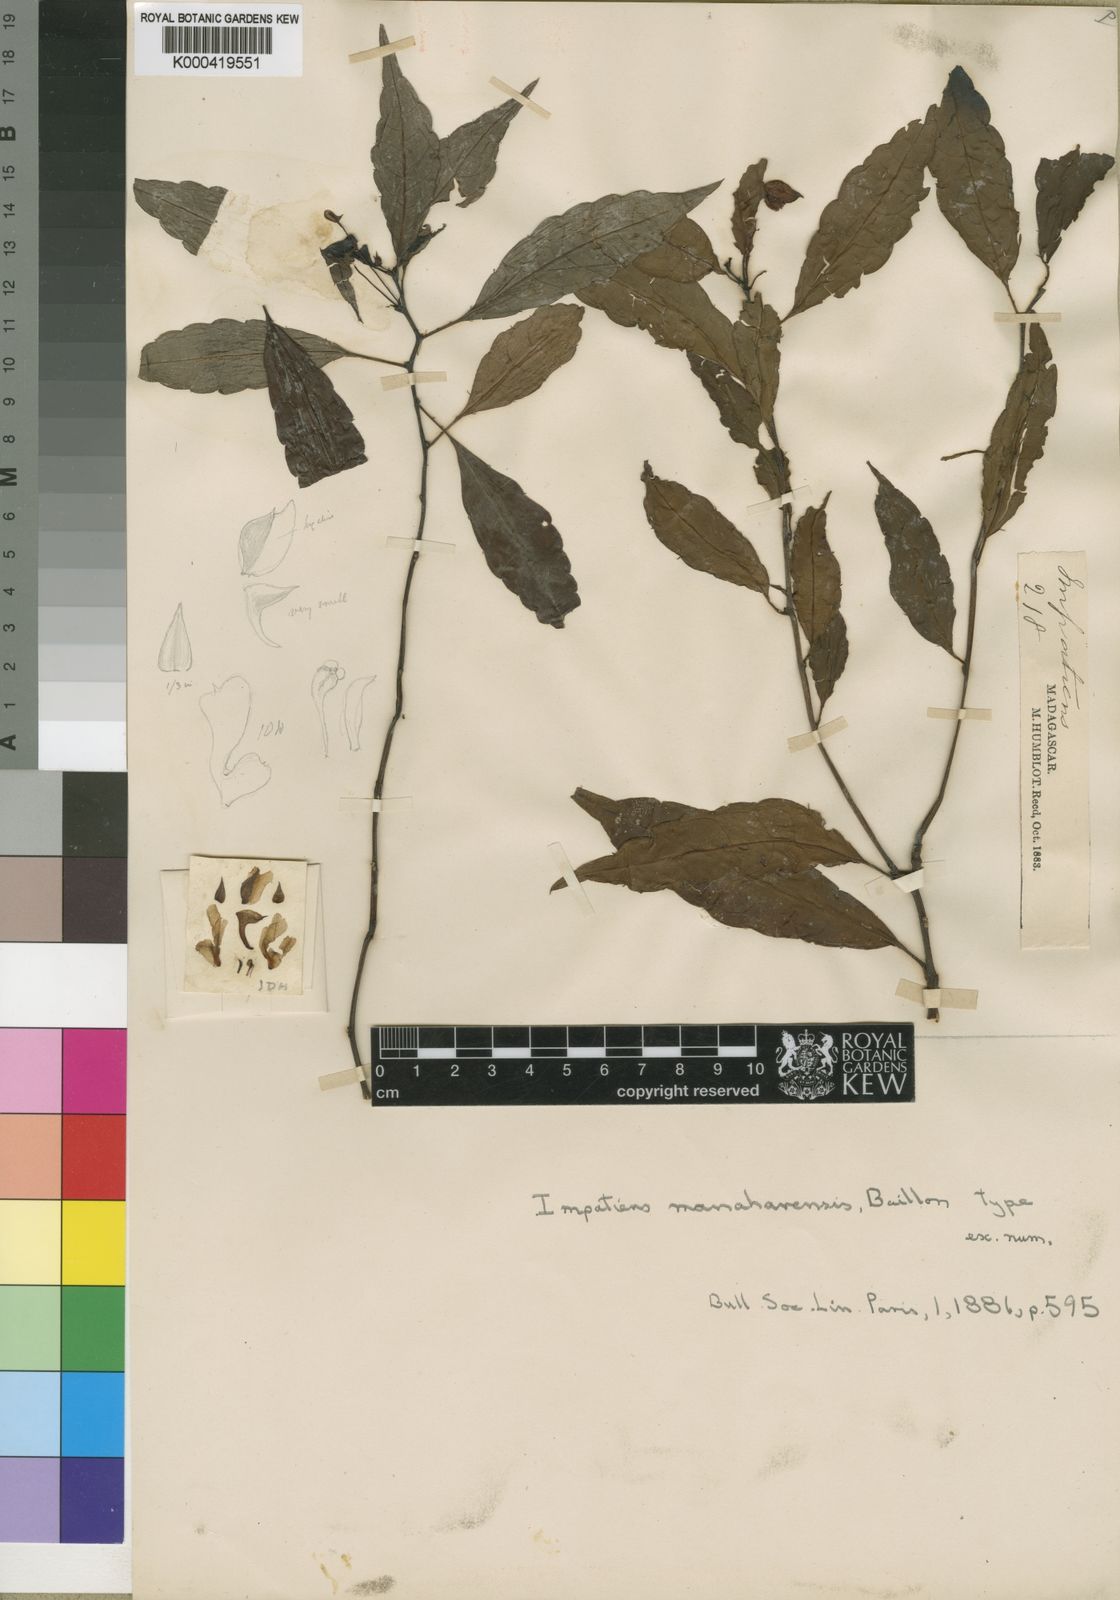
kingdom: Plantae
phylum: Tracheophyta
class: Magnoliopsida
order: Ericales
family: Balsaminaceae
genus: Impatiens
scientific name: Impatiens manaharensis
